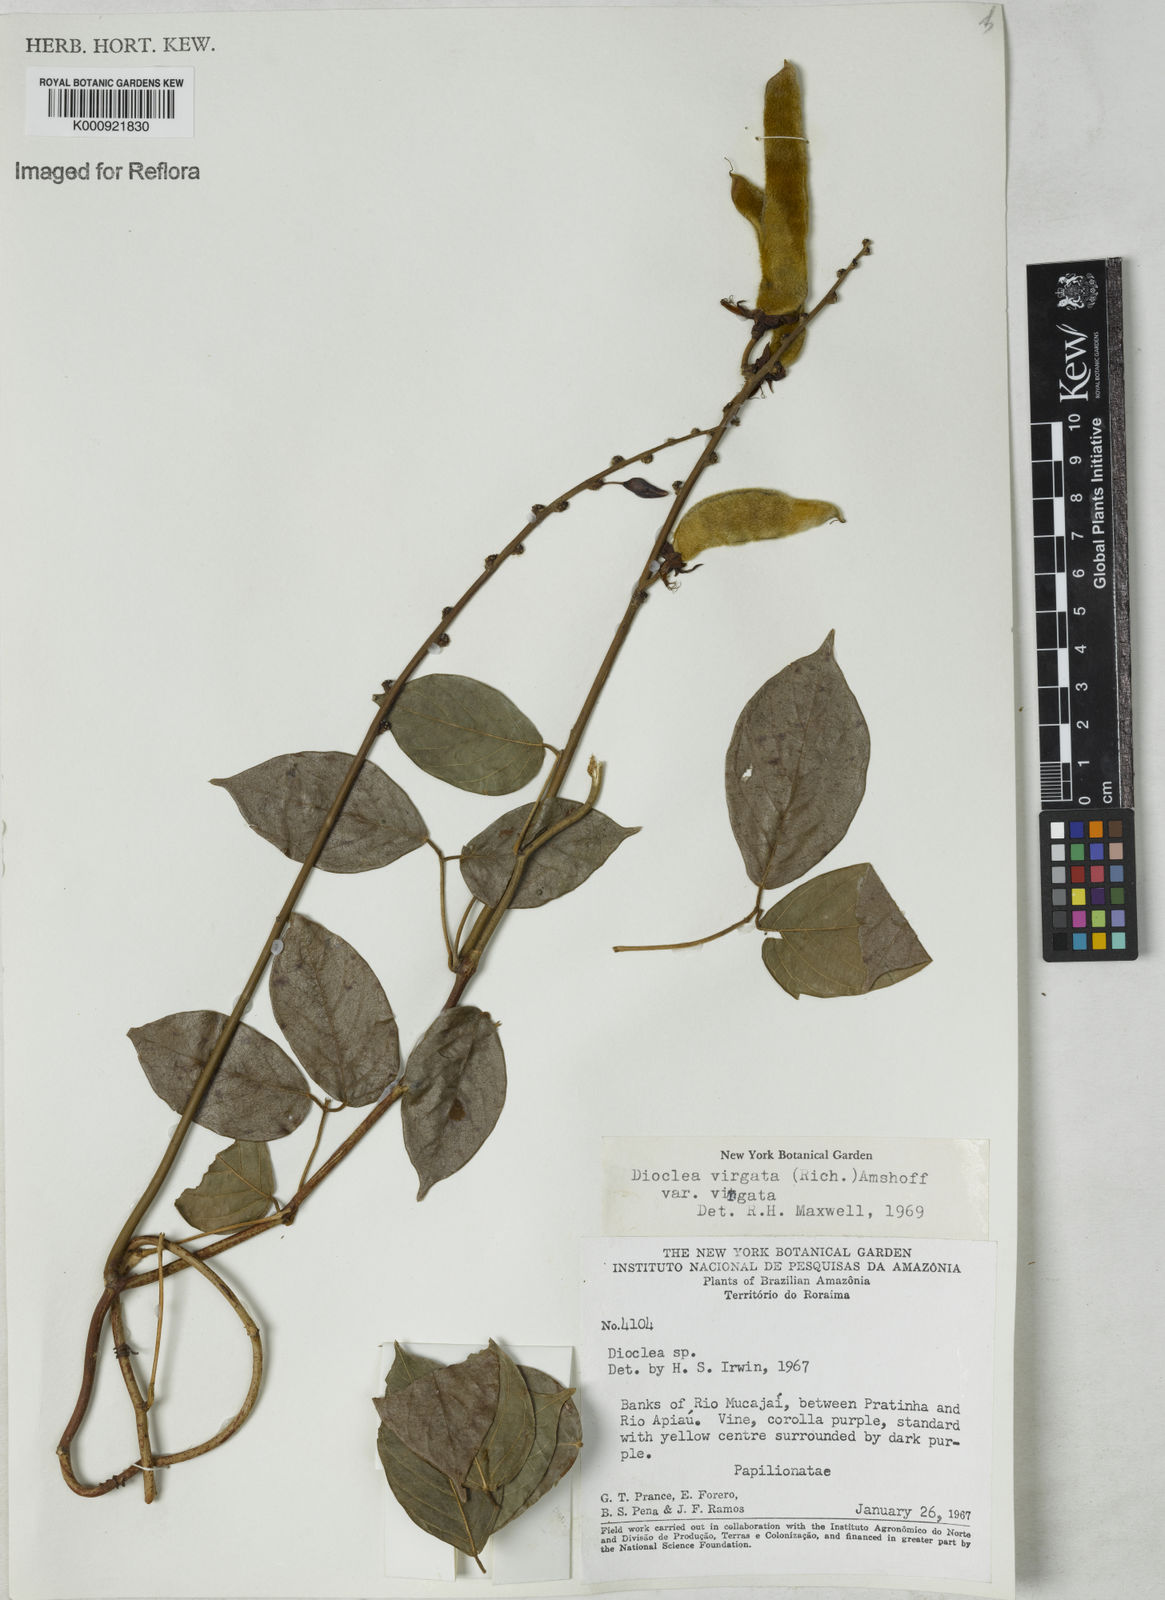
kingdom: Plantae
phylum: Tracheophyta
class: Magnoliopsida
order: Fabales
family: Fabaceae
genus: Dioclea
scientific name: Dioclea virgata
